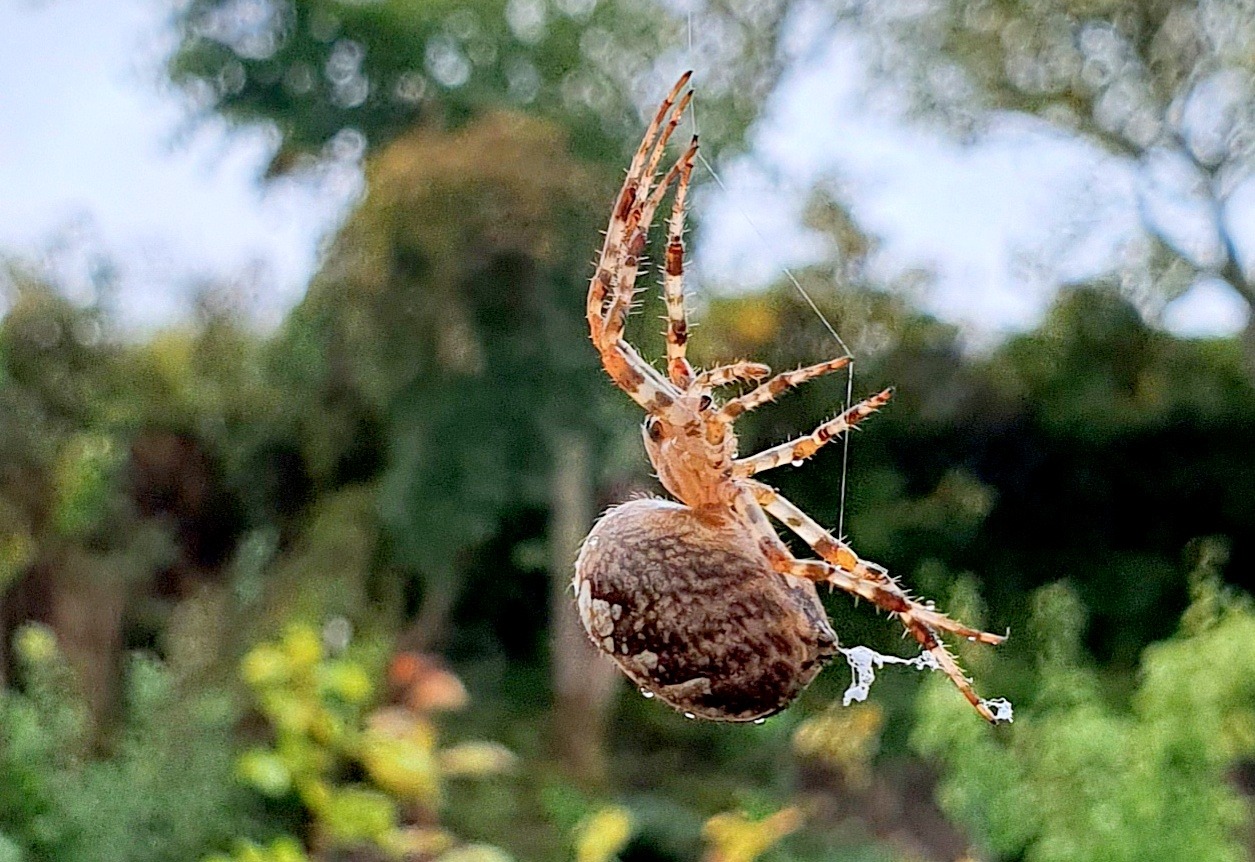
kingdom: Animalia
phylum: Arthropoda
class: Arachnida
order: Araneae
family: Araneidae
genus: Araneus
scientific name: Araneus diadematus
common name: Korsedderkop
